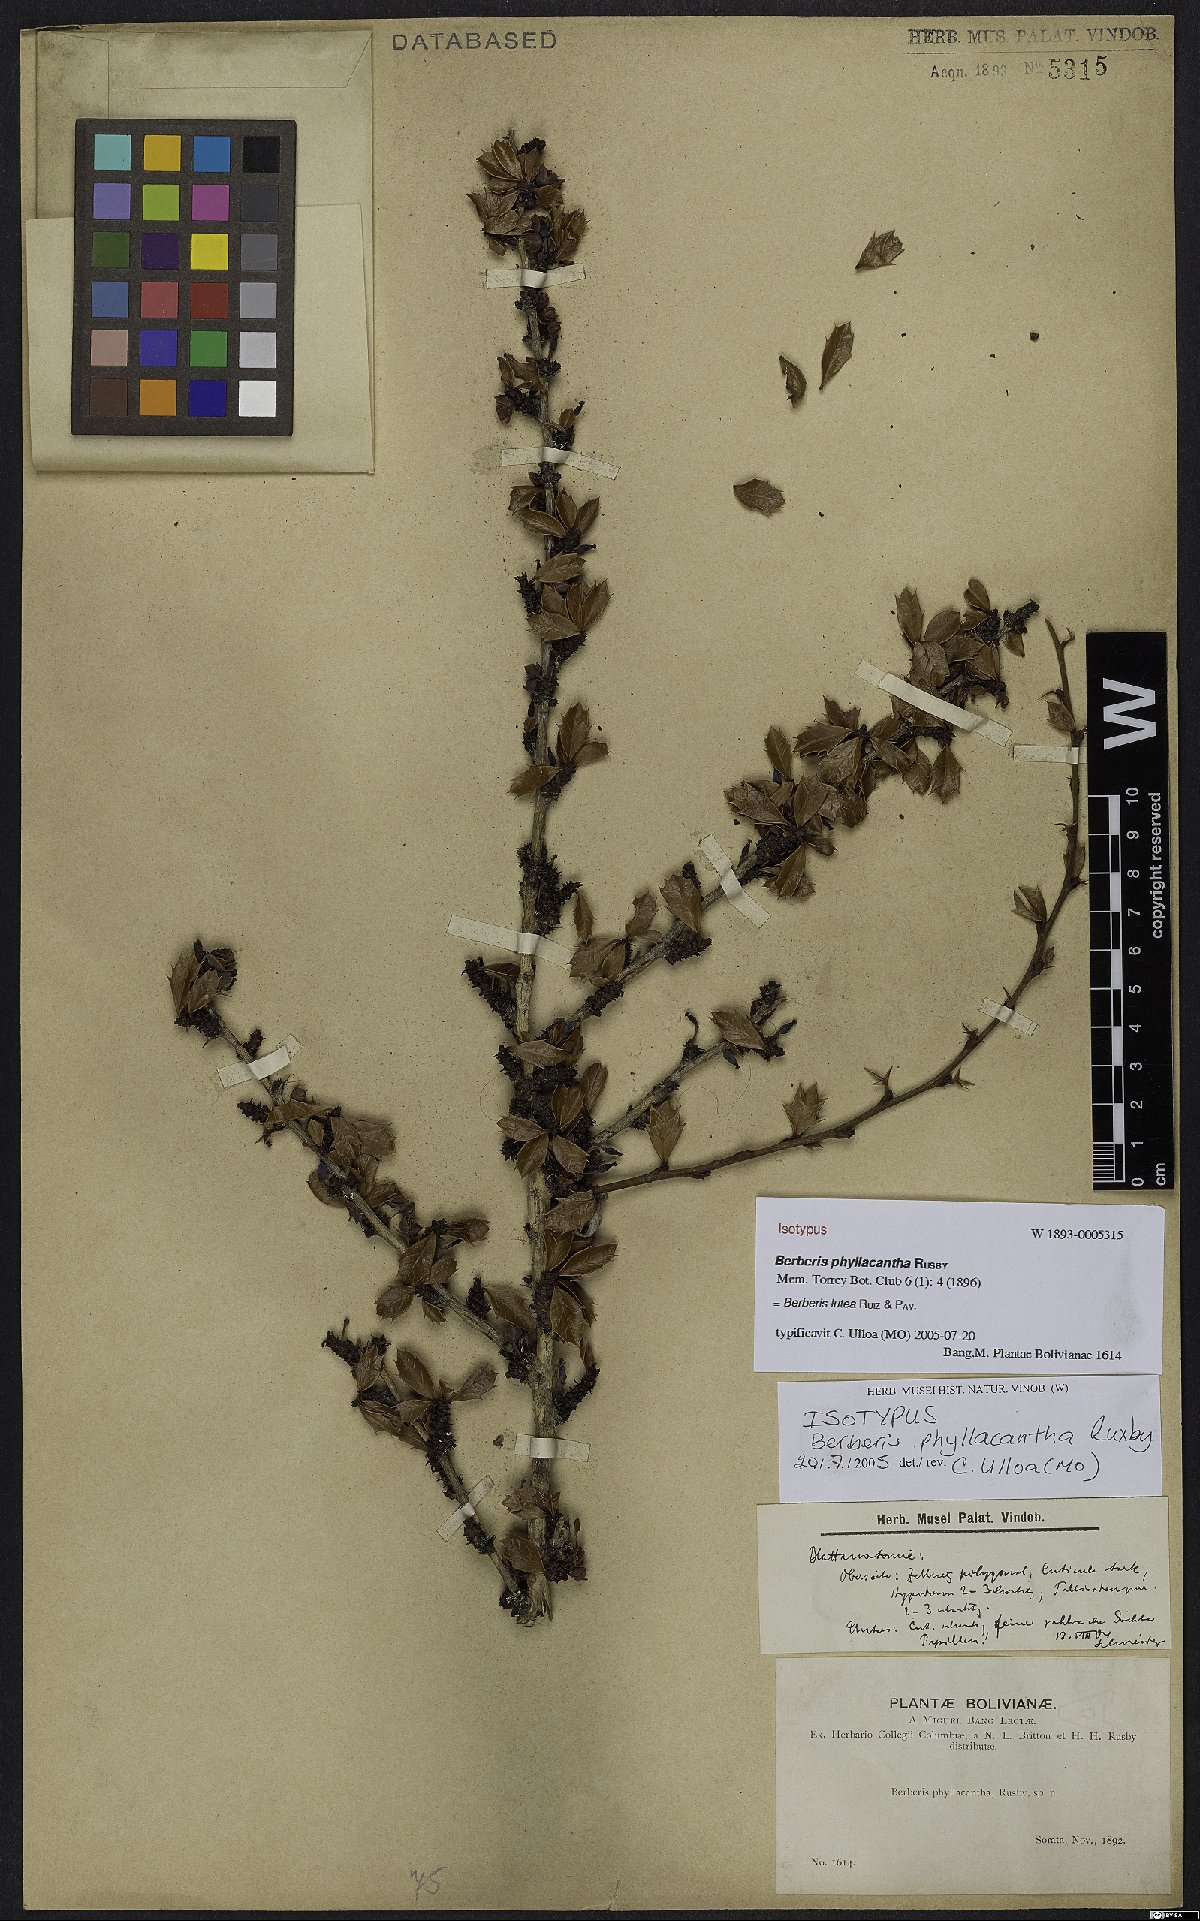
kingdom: Plantae
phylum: Tracheophyta
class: Magnoliopsida
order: Ranunculales
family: Berberidaceae
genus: Berberis
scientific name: Berberis lutea
